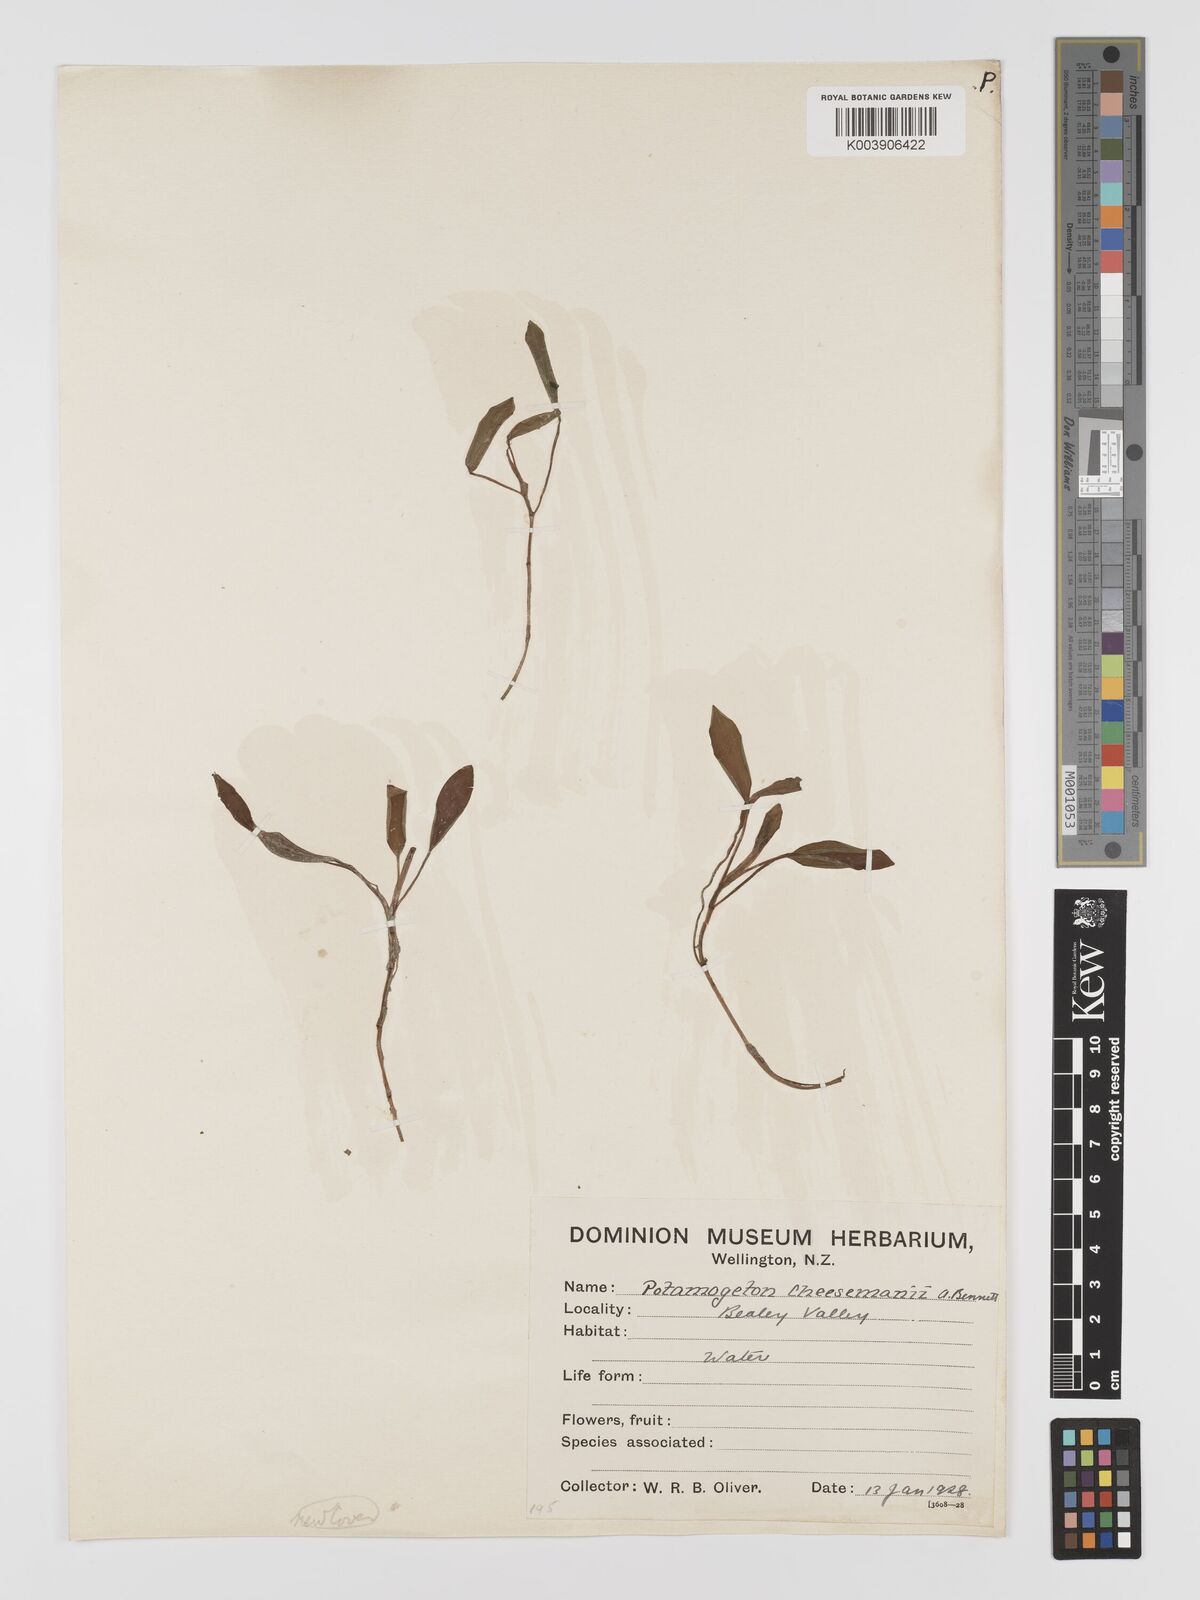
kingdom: Plantae
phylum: Tracheophyta
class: Liliopsida
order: Alismatales
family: Potamogetonaceae
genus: Potamogeton
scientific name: Potamogeton cheesemanii
